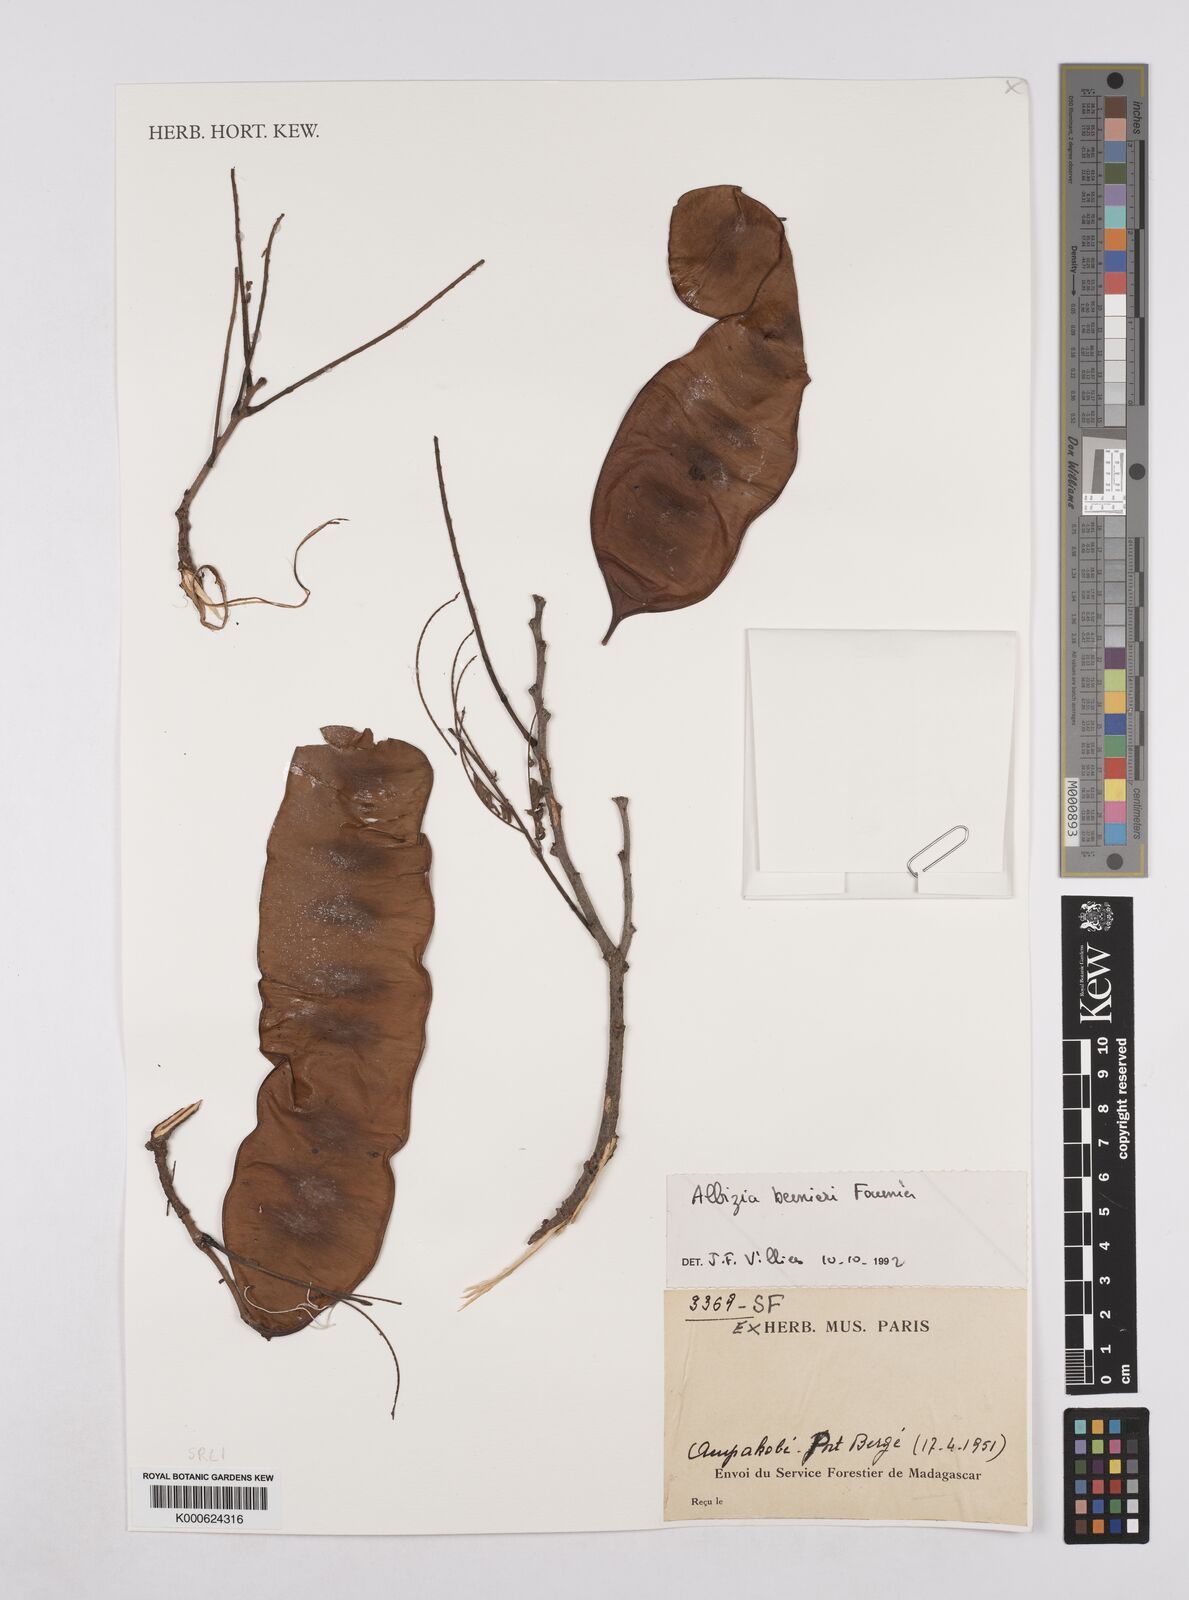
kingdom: Plantae
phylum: Tracheophyta
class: Magnoliopsida
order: Fabales
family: Fabaceae
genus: Albizia
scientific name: Albizia bernieri
